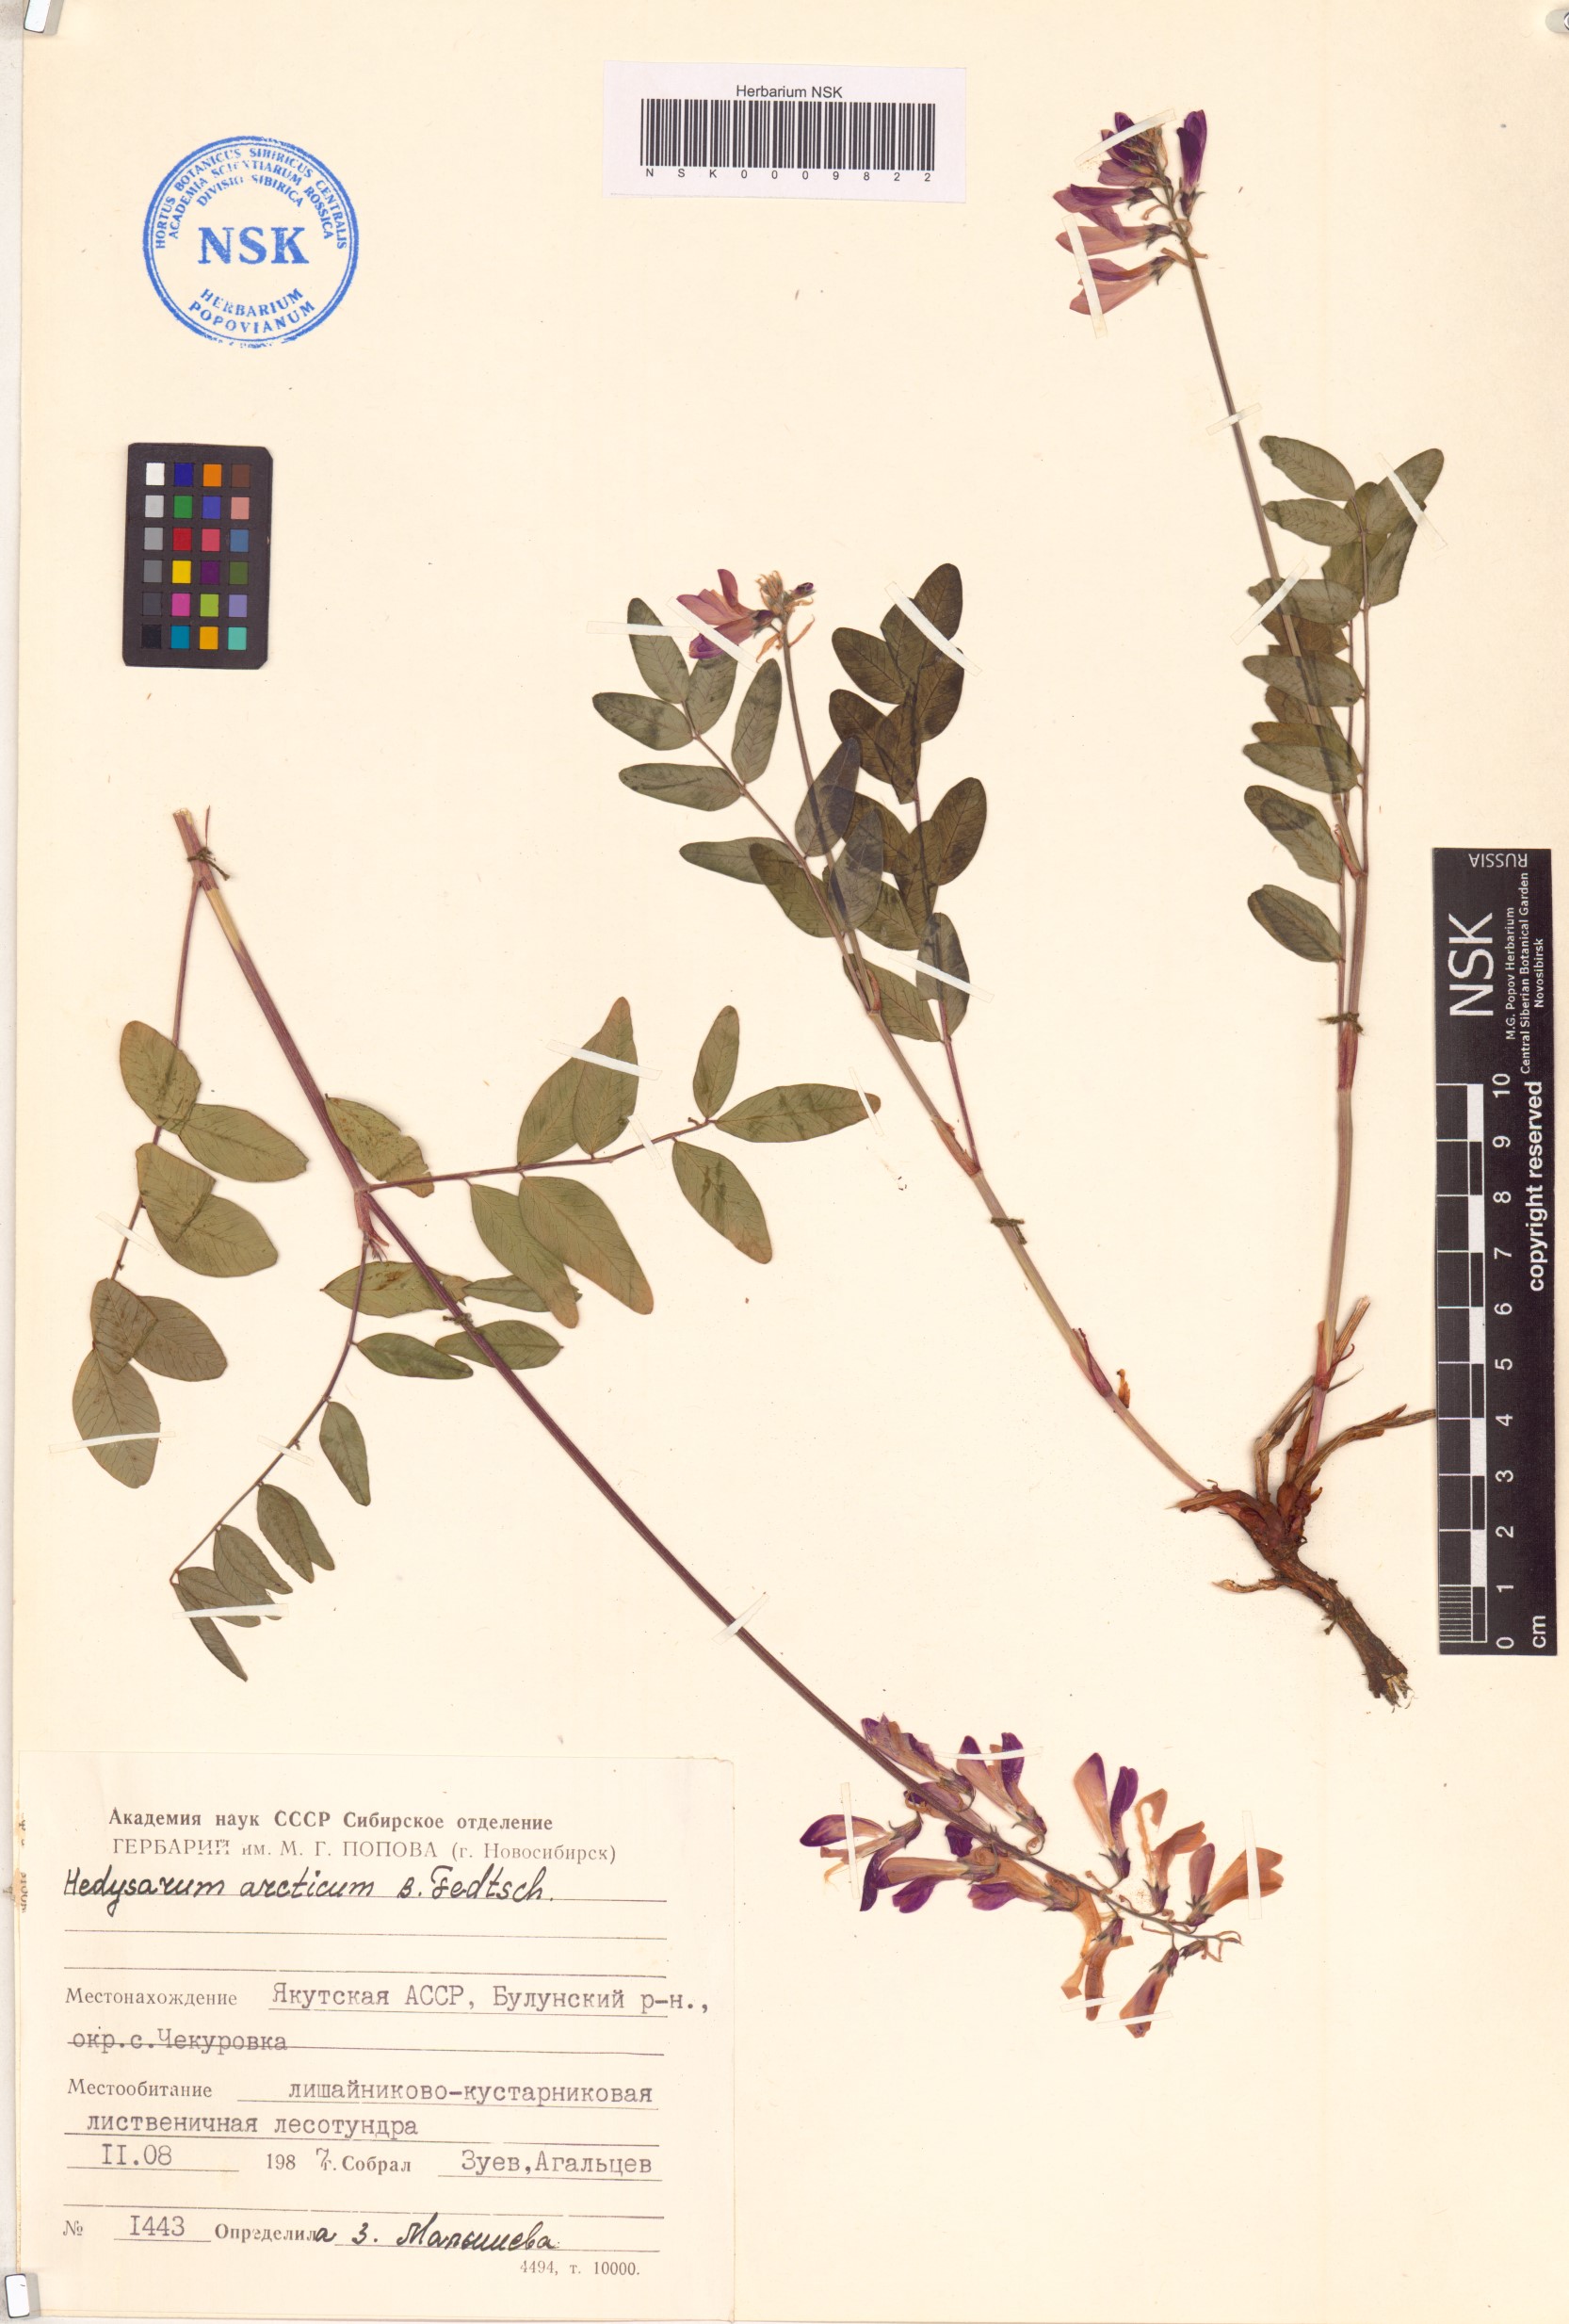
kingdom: Plantae
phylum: Tracheophyta
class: Magnoliopsida
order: Fabales
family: Fabaceae
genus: Hedysarum
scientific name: Hedysarum hedysaroides
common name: Alpine french-honeysuckle
